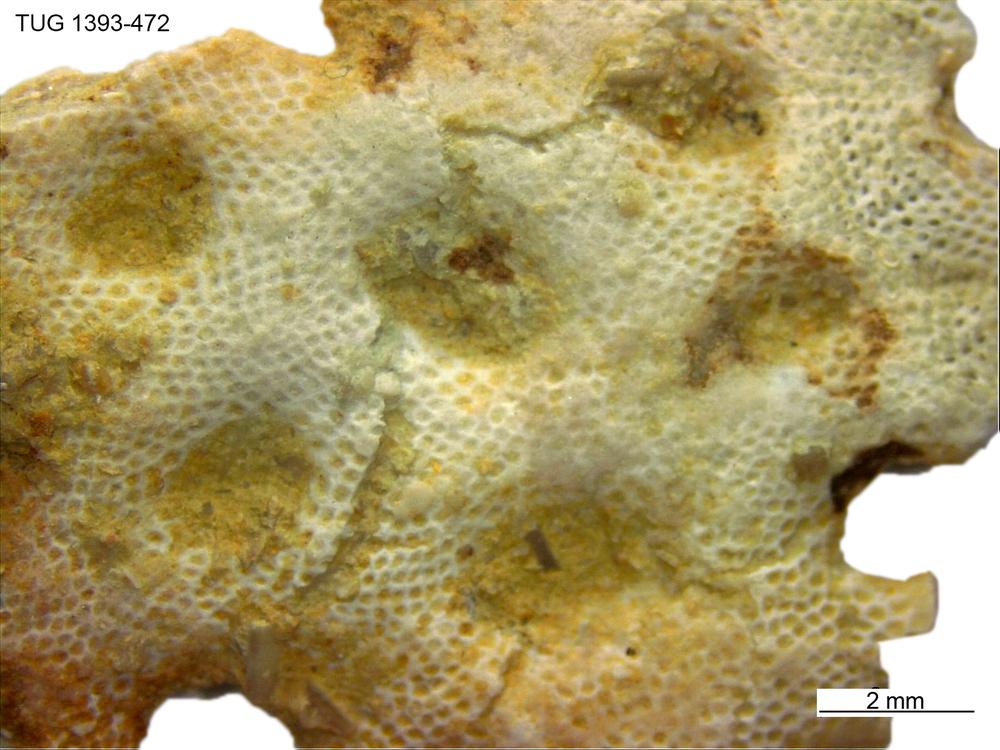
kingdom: Animalia
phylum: Bryozoa
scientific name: Bryozoa
